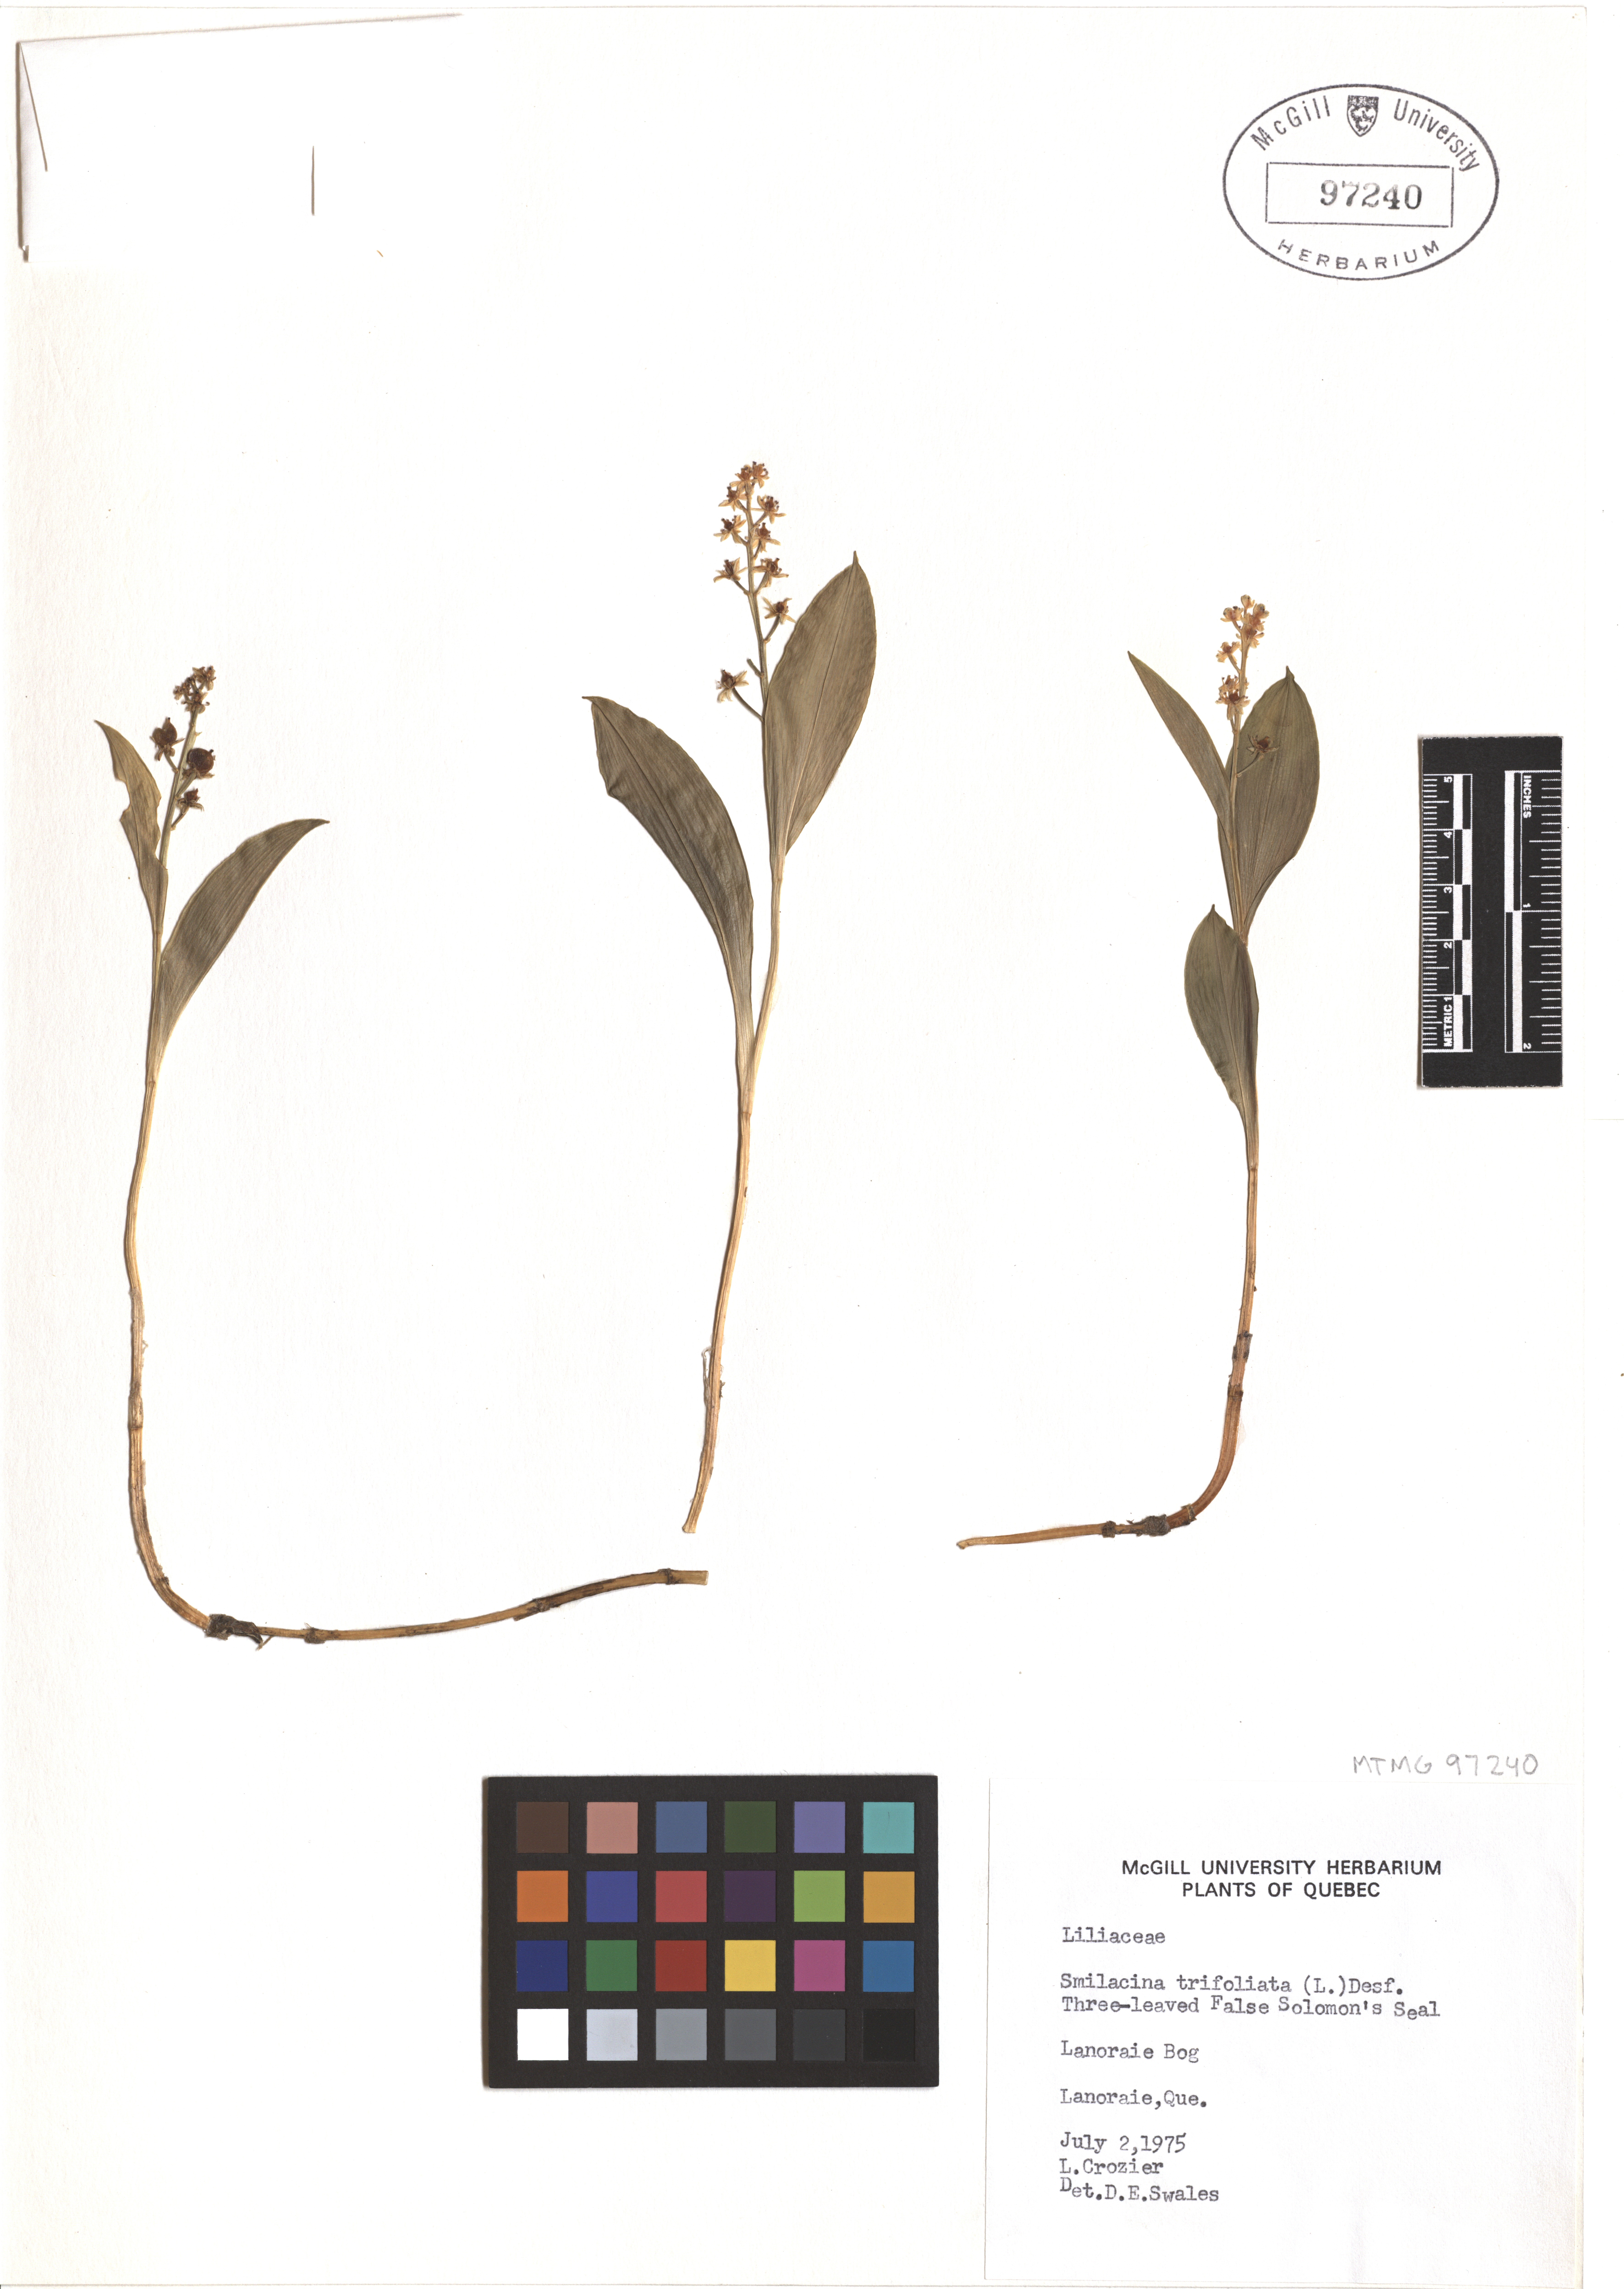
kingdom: Plantae
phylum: Tracheophyta
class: Liliopsida
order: Asparagales
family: Asparagaceae
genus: Maianthemum
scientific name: Maianthemum trifolium
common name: Swamp false solomon's seal
